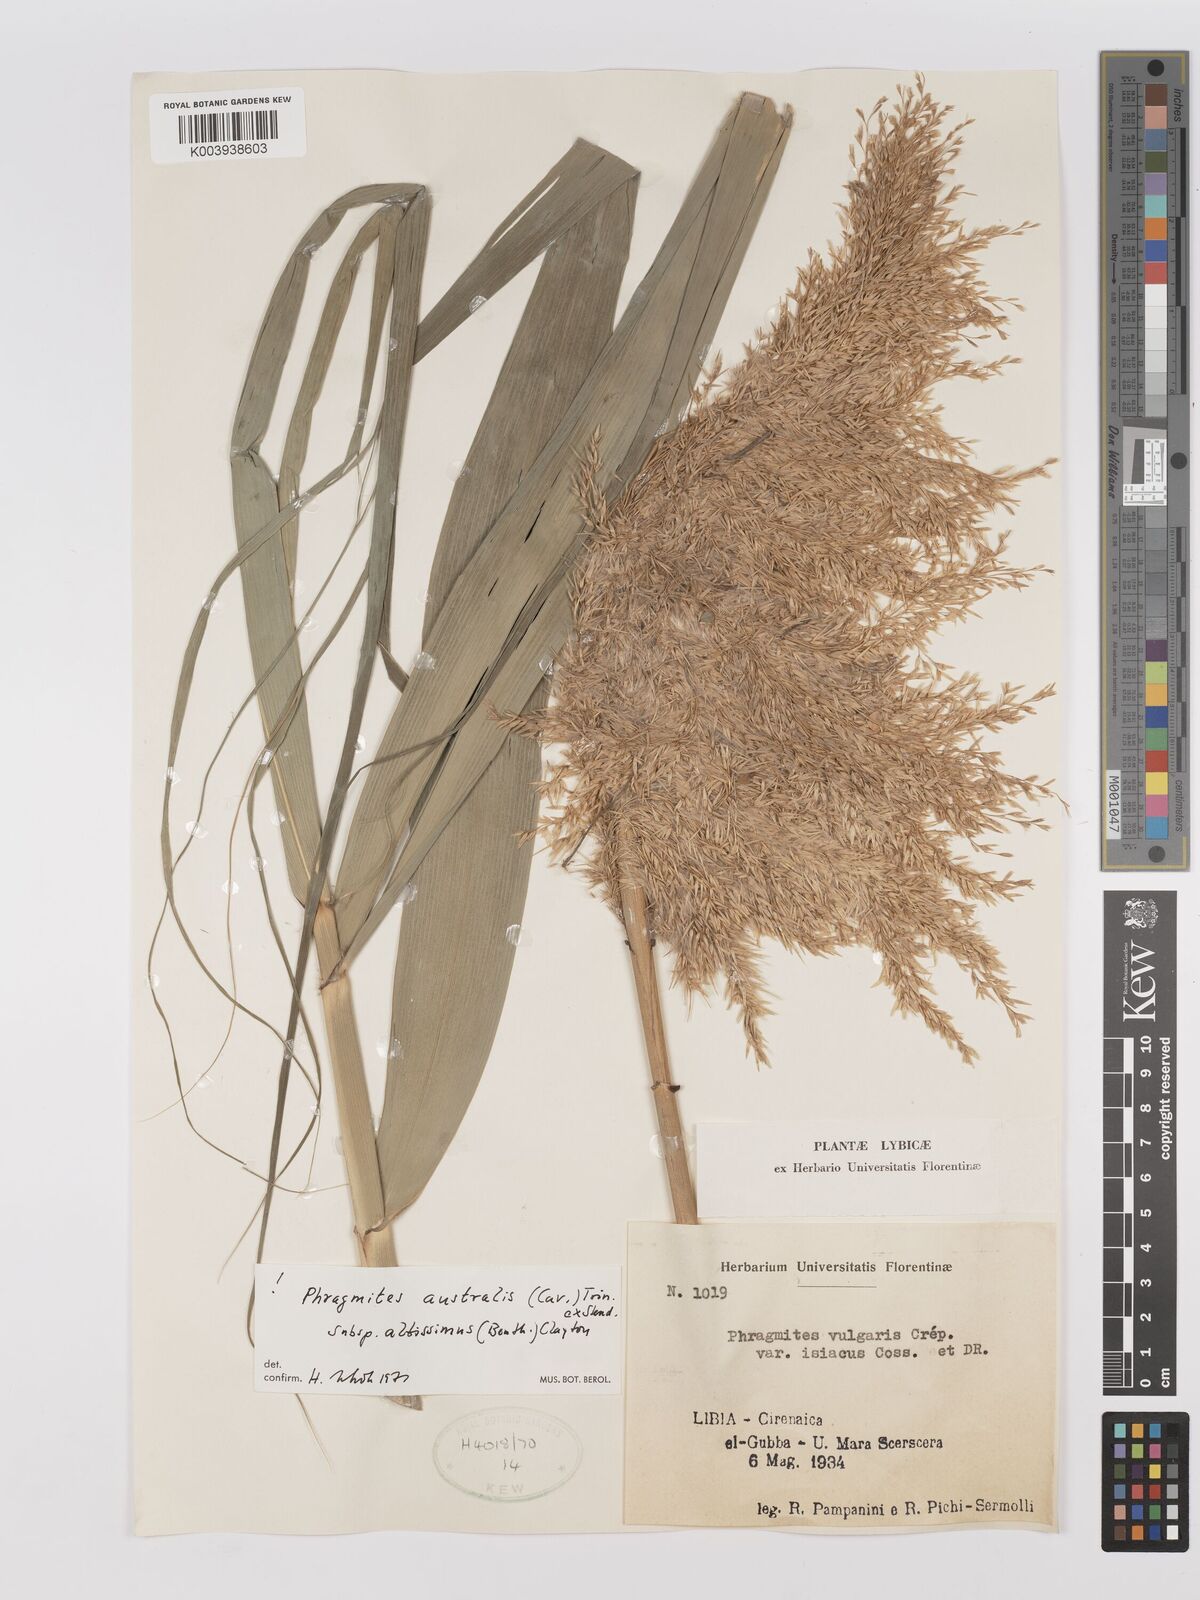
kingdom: Plantae
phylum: Tracheophyta
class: Liliopsida
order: Poales
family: Poaceae
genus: Phragmites
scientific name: Phragmites australis
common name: Common reed
